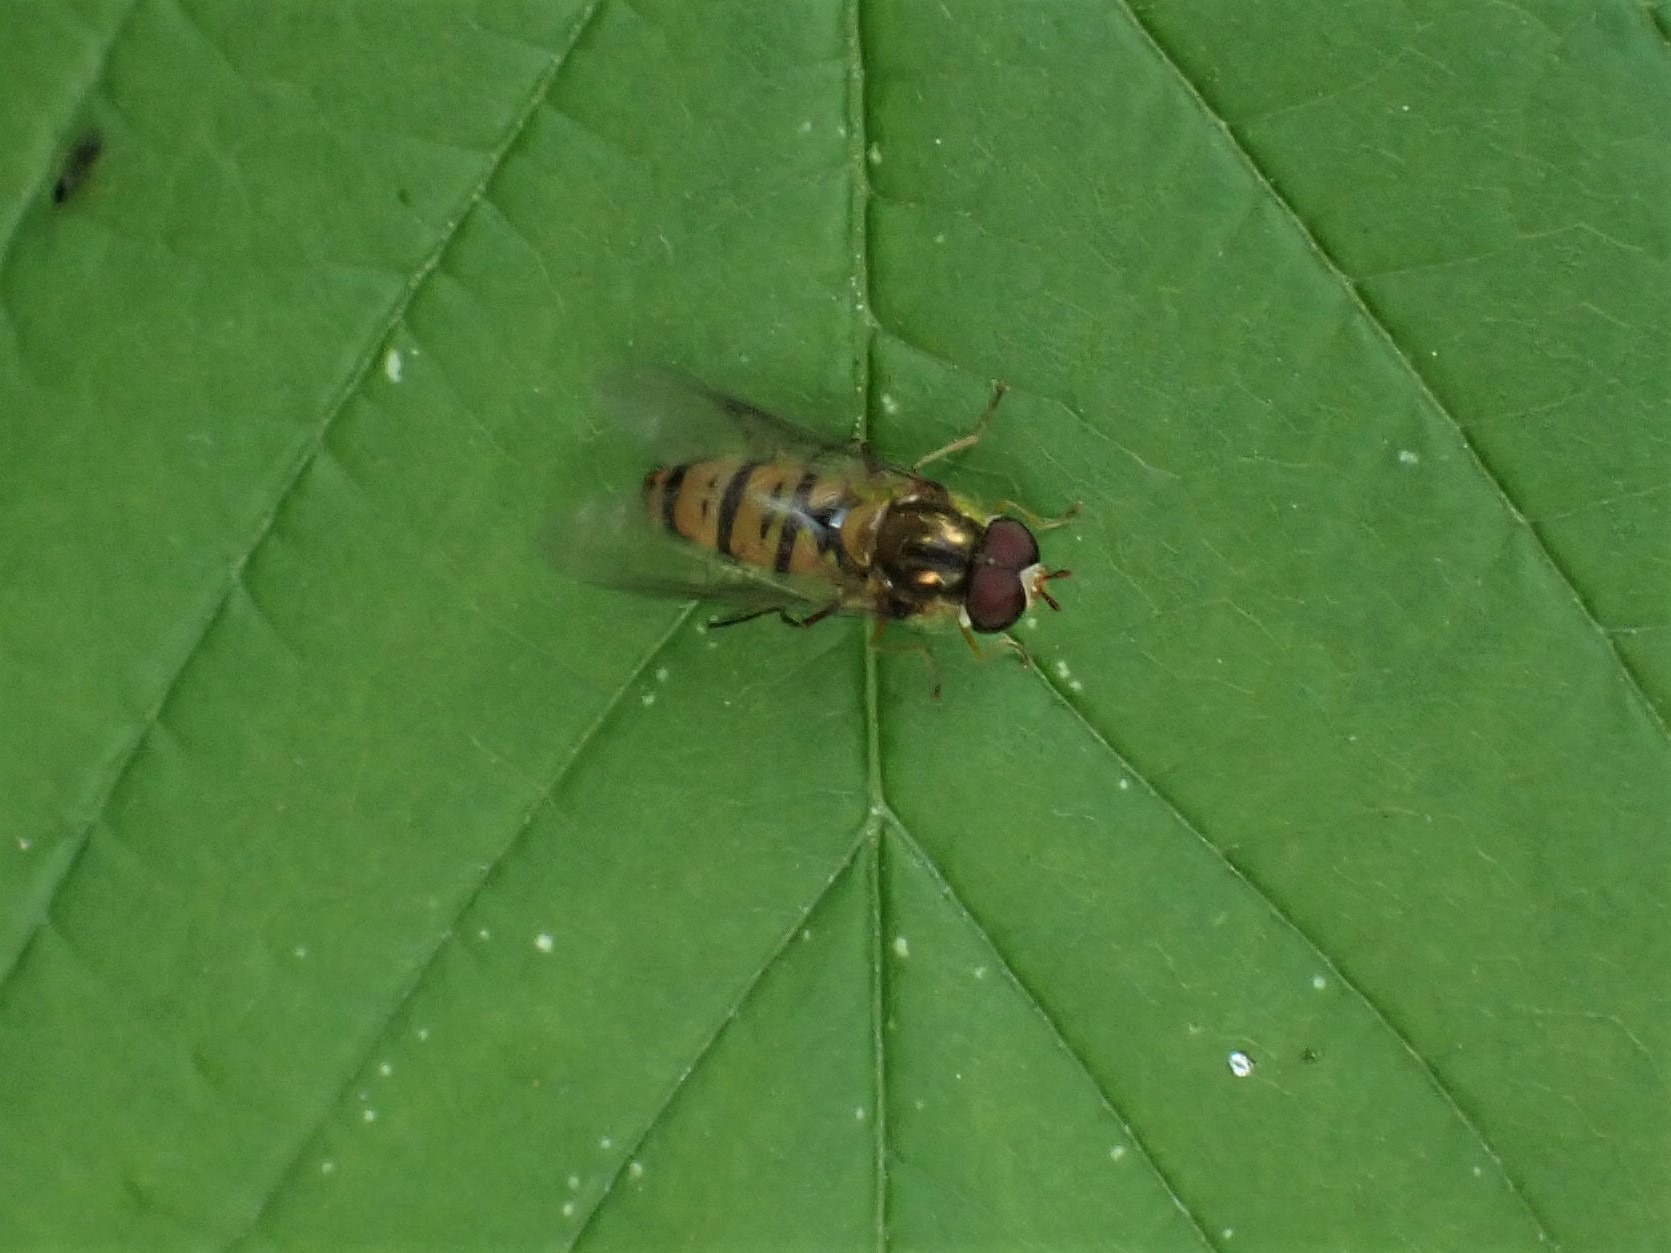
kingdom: Animalia
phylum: Arthropoda
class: Insecta
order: Diptera
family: Syrphidae
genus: Episyrphus
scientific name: Episyrphus balteatus
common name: Dobbeltbåndet svirreflue
